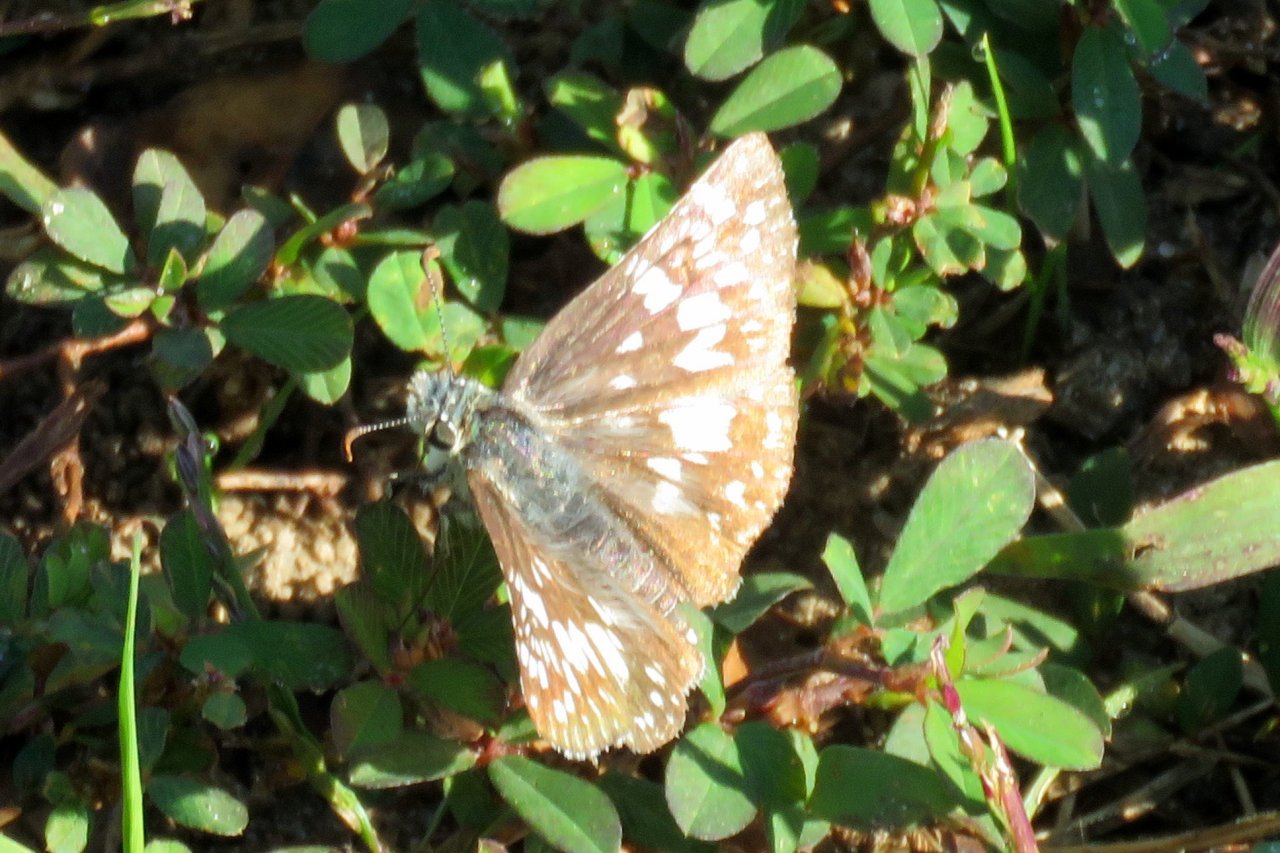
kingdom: Animalia
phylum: Arthropoda
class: Insecta
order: Lepidoptera
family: Hesperiidae
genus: Pyrgus
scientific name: Pyrgus communis
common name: Common Checkered-Skipper
